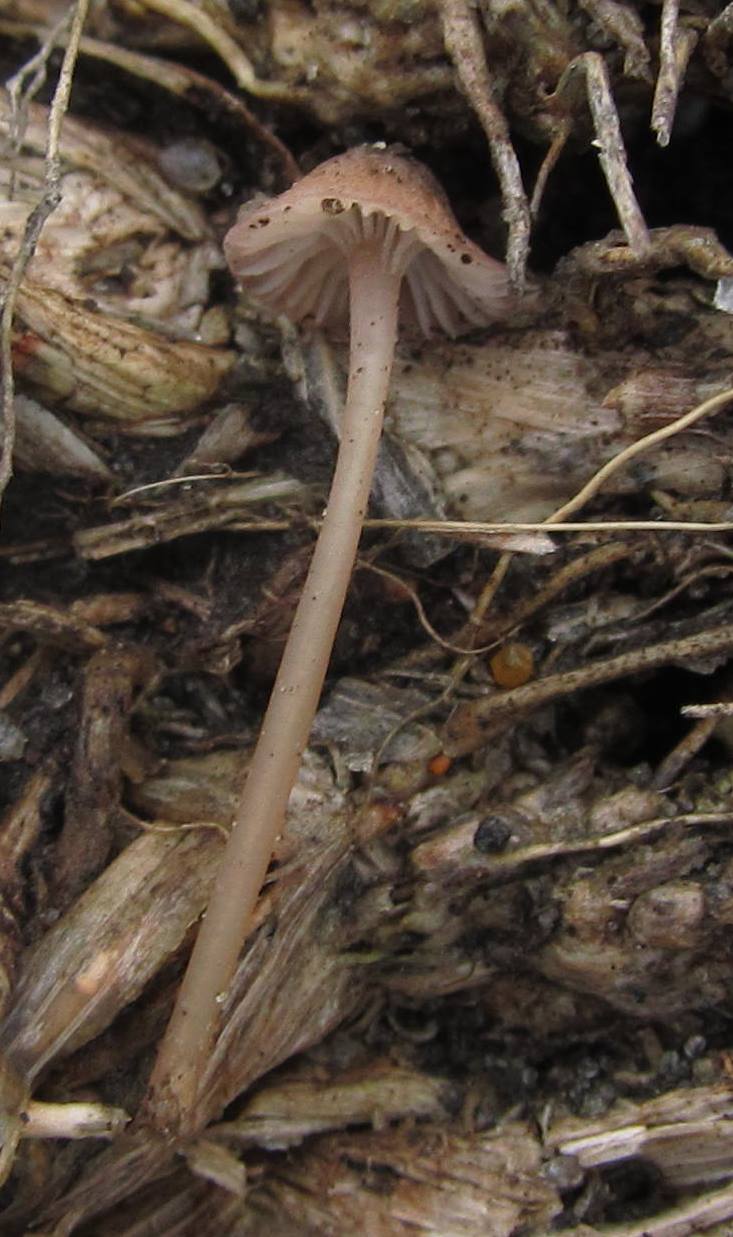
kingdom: Fungi
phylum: Basidiomycota
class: Agaricomycetes
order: Agaricales
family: Mycenaceae
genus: Mycena
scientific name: Mycena olivaceomarginata
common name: brunægget huesvamp
